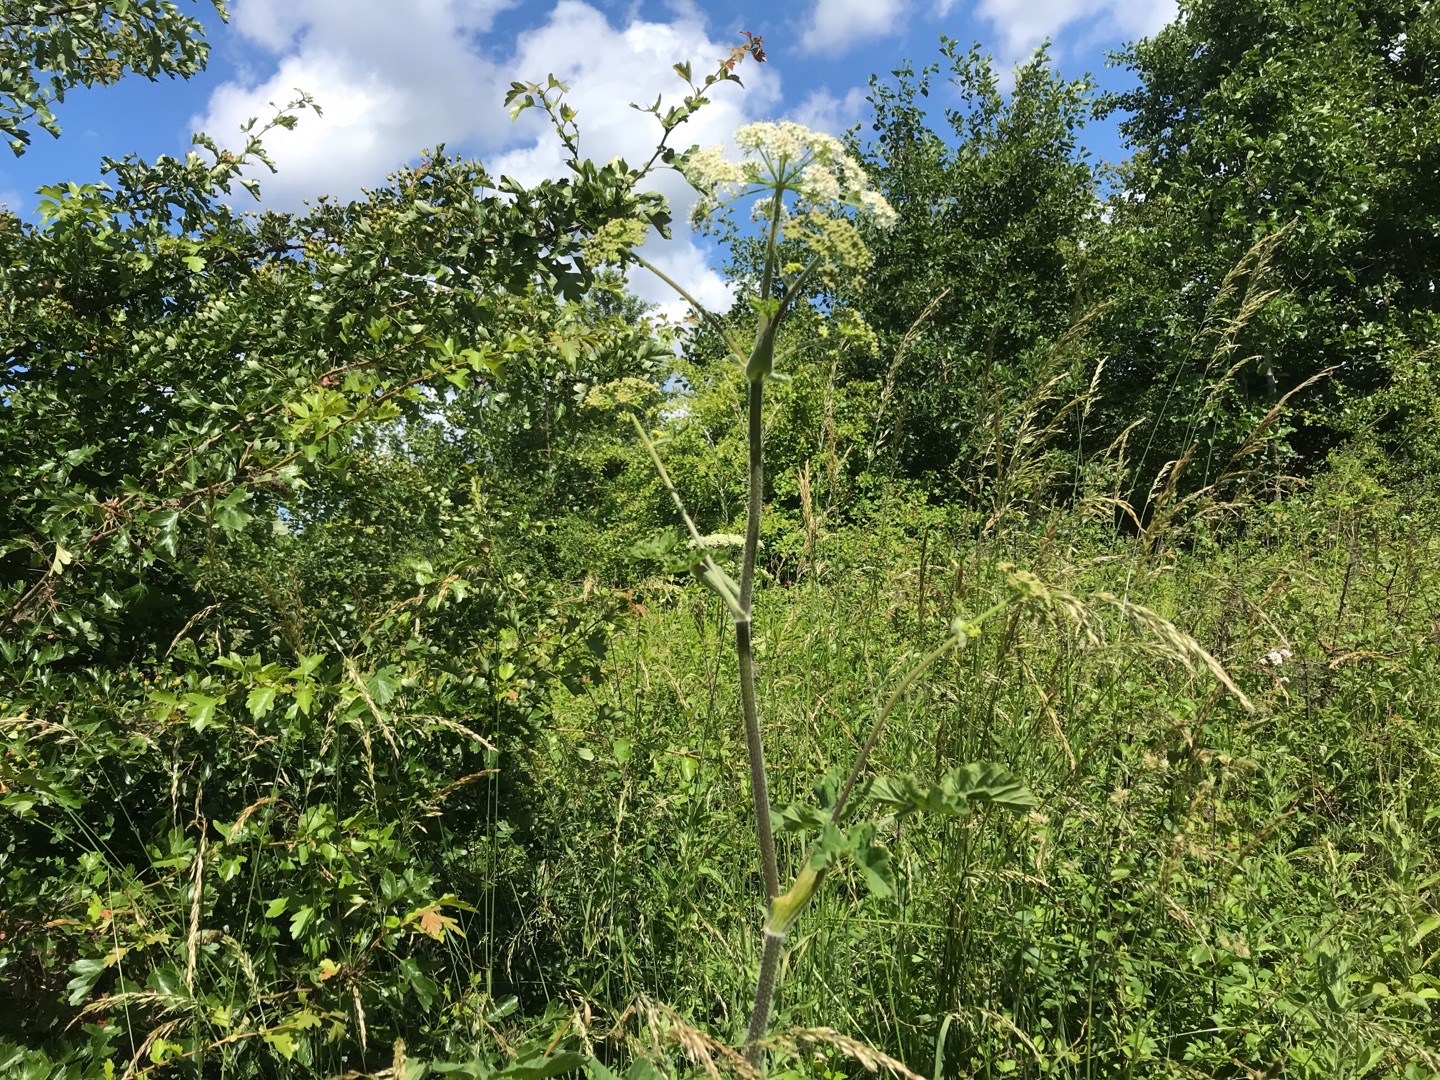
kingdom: Plantae
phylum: Tracheophyta
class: Magnoliopsida
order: Apiales
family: Apiaceae
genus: Heracleum
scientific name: Heracleum sphondylium
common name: Almindelig bjørneklo (underart)
